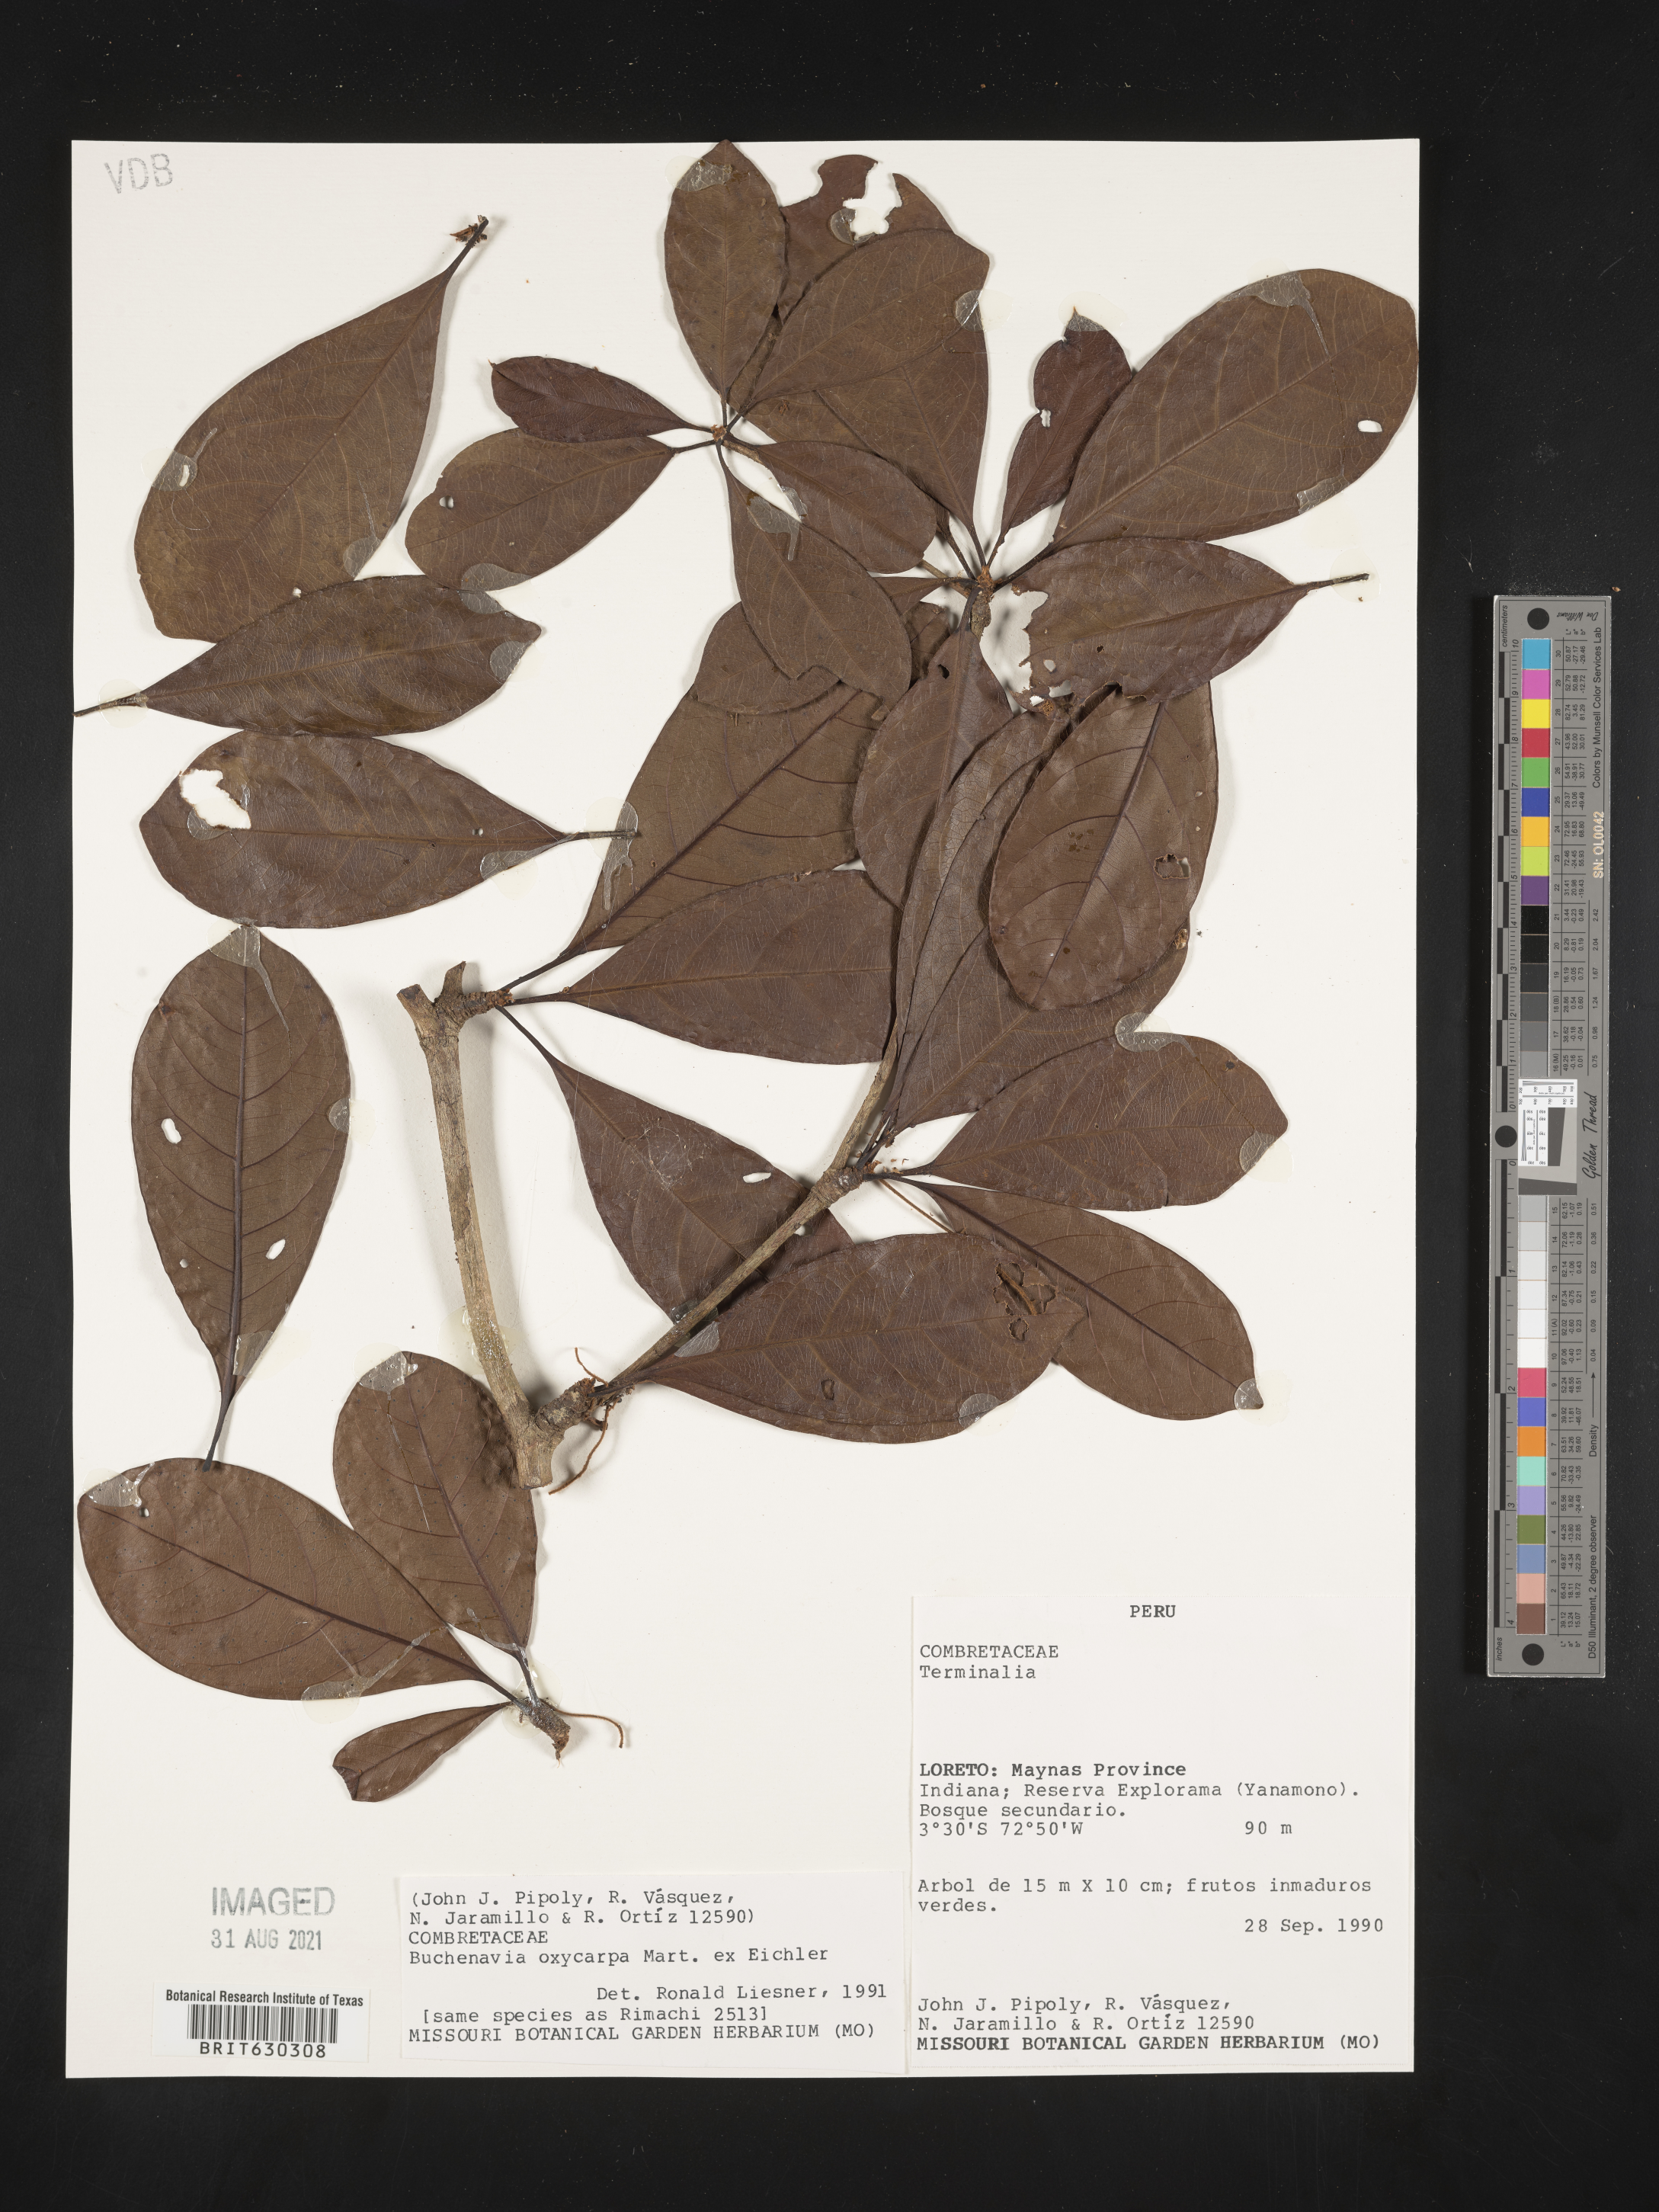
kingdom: Plantae
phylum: Tracheophyta
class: Magnoliopsida
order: Myrtales
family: Combretaceae
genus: Terminalia
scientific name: Terminalia oxycarpa
